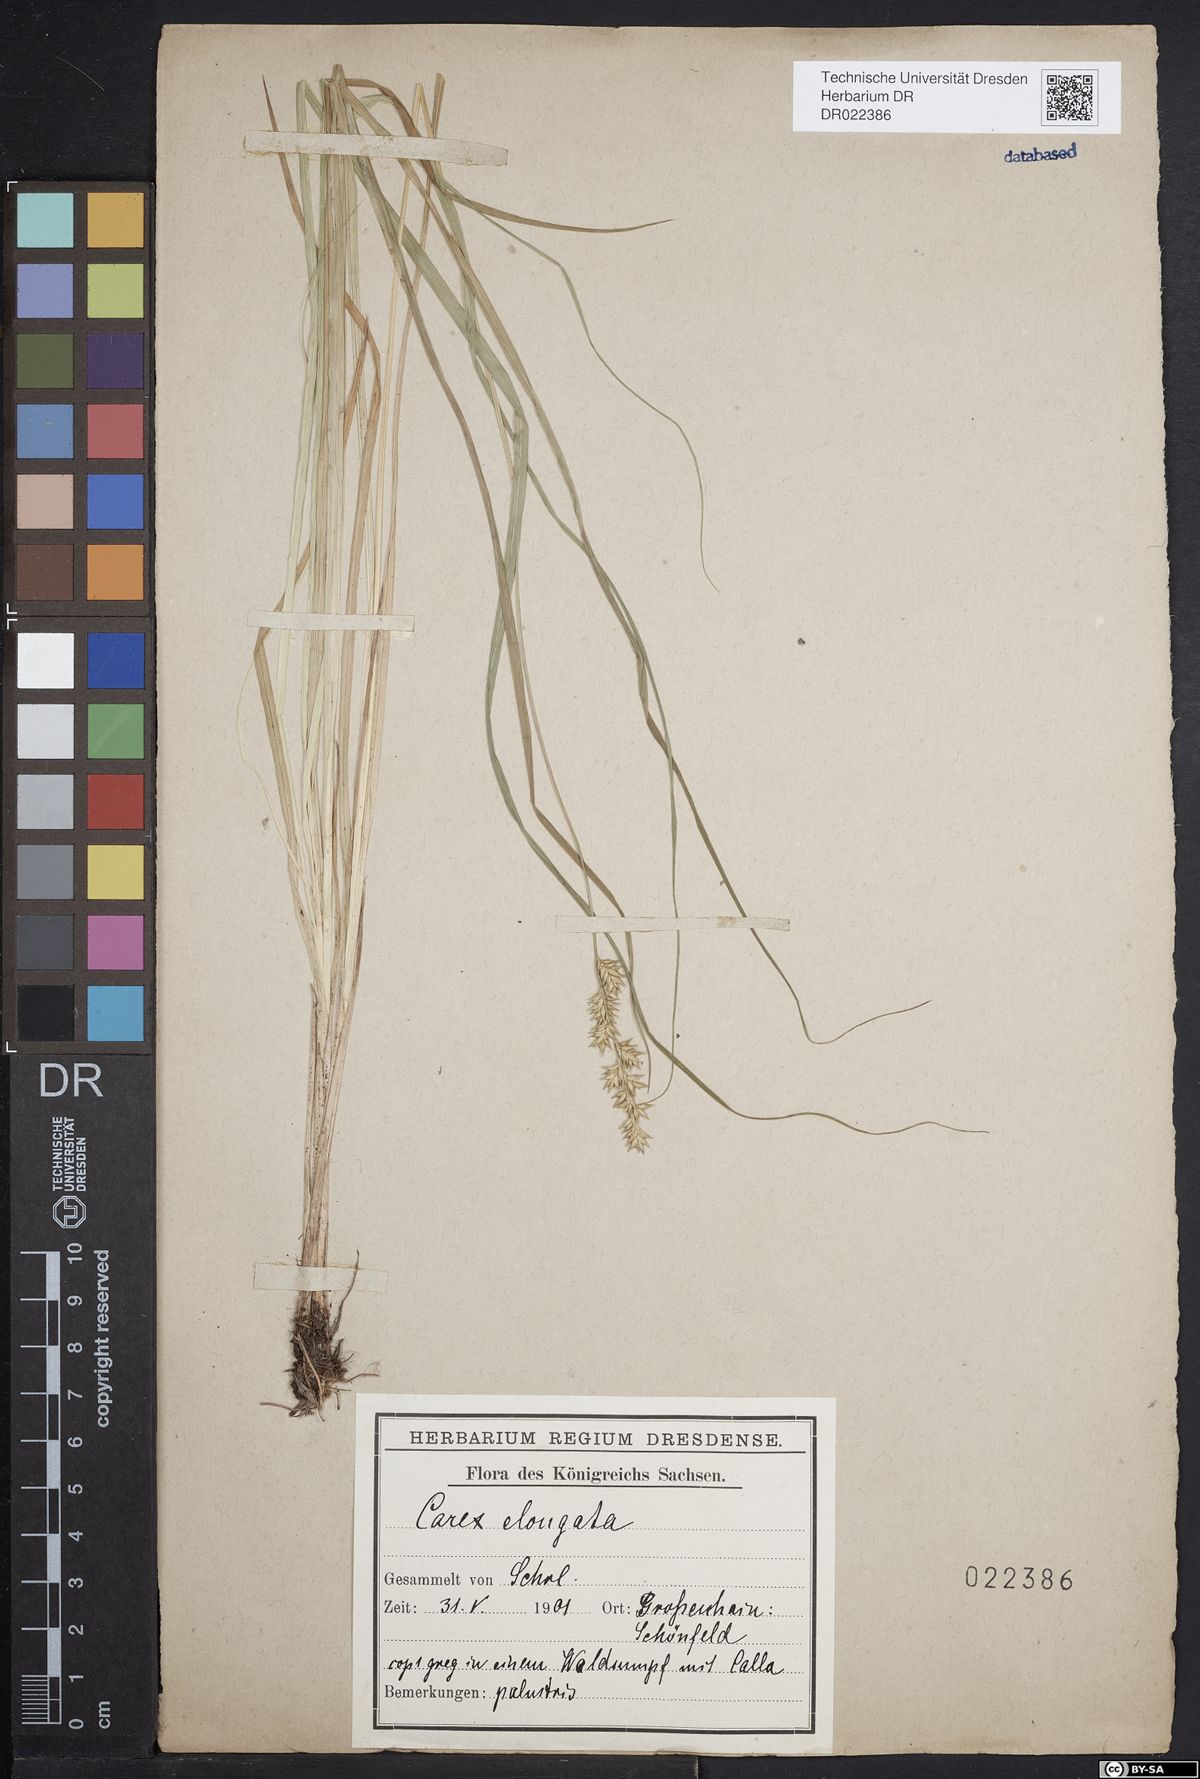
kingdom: Plantae
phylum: Tracheophyta
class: Liliopsida
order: Poales
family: Cyperaceae
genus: Carex
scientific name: Carex elongata
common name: Elongated sedge
